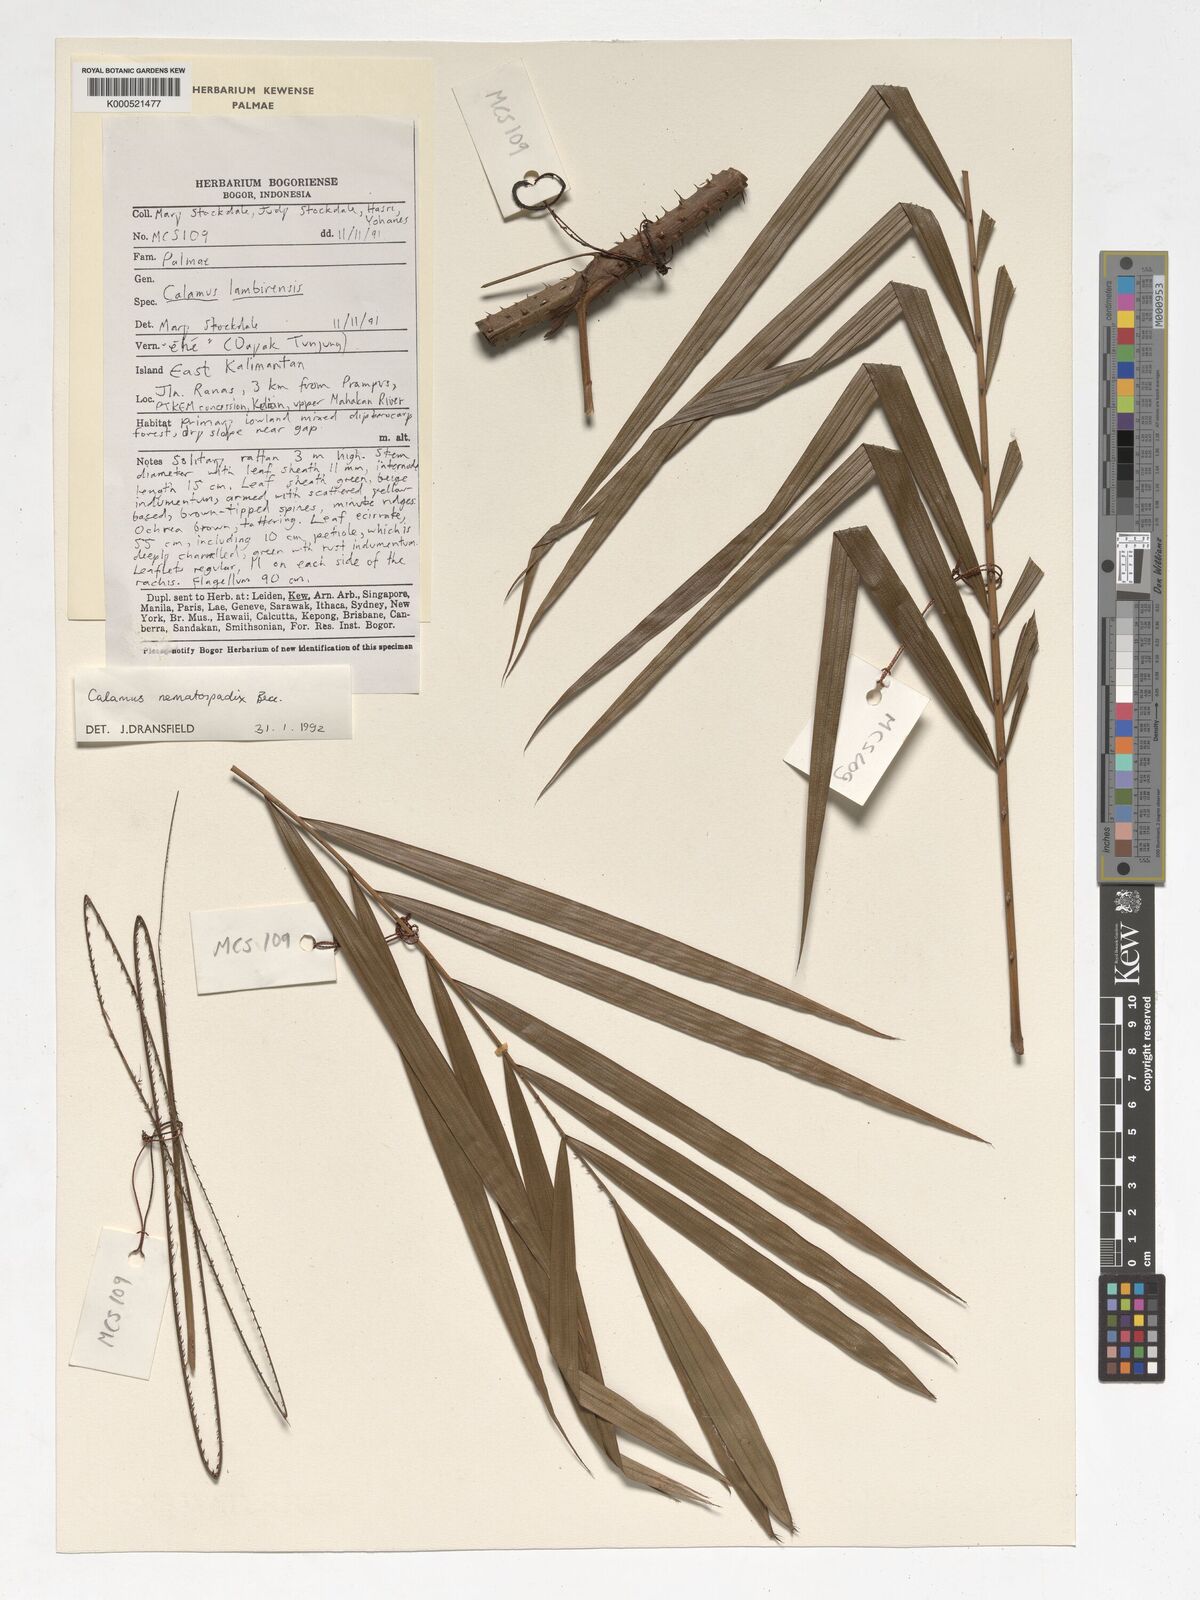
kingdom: Plantae
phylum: Tracheophyta
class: Liliopsida
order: Arecales
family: Arecaceae
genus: Calamus
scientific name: Calamus nematospadix
